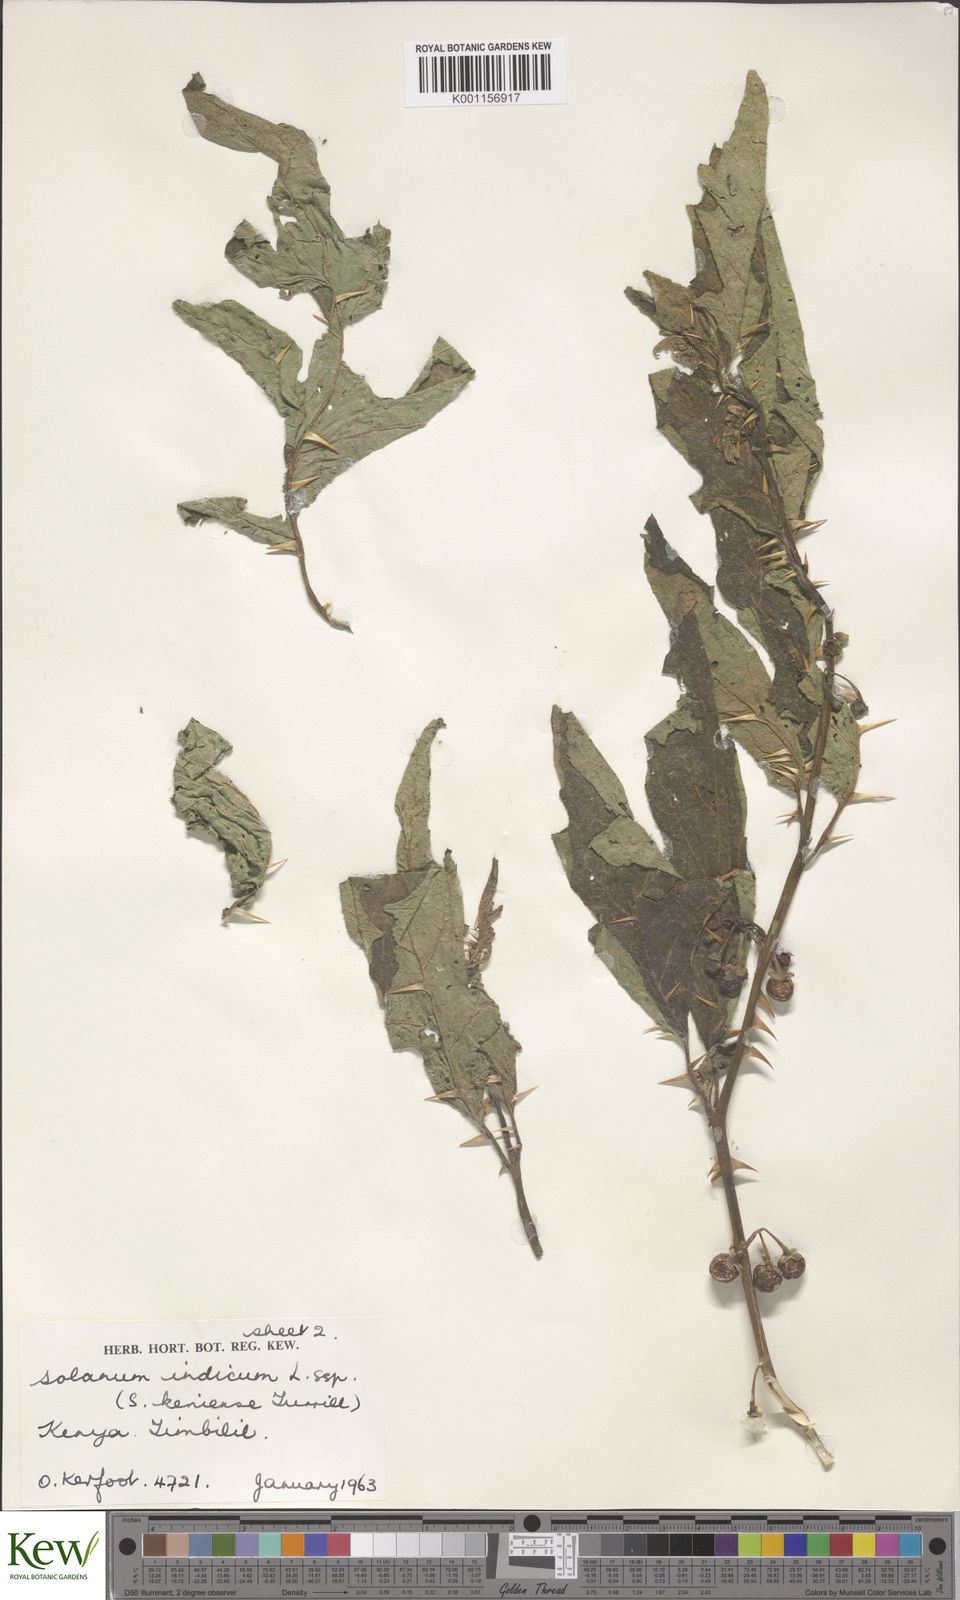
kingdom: Plantae
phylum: Tracheophyta
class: Magnoliopsida
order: Solanales
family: Solanaceae
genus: Solanum
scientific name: Solanum anguivi
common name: Forest bitterberry
